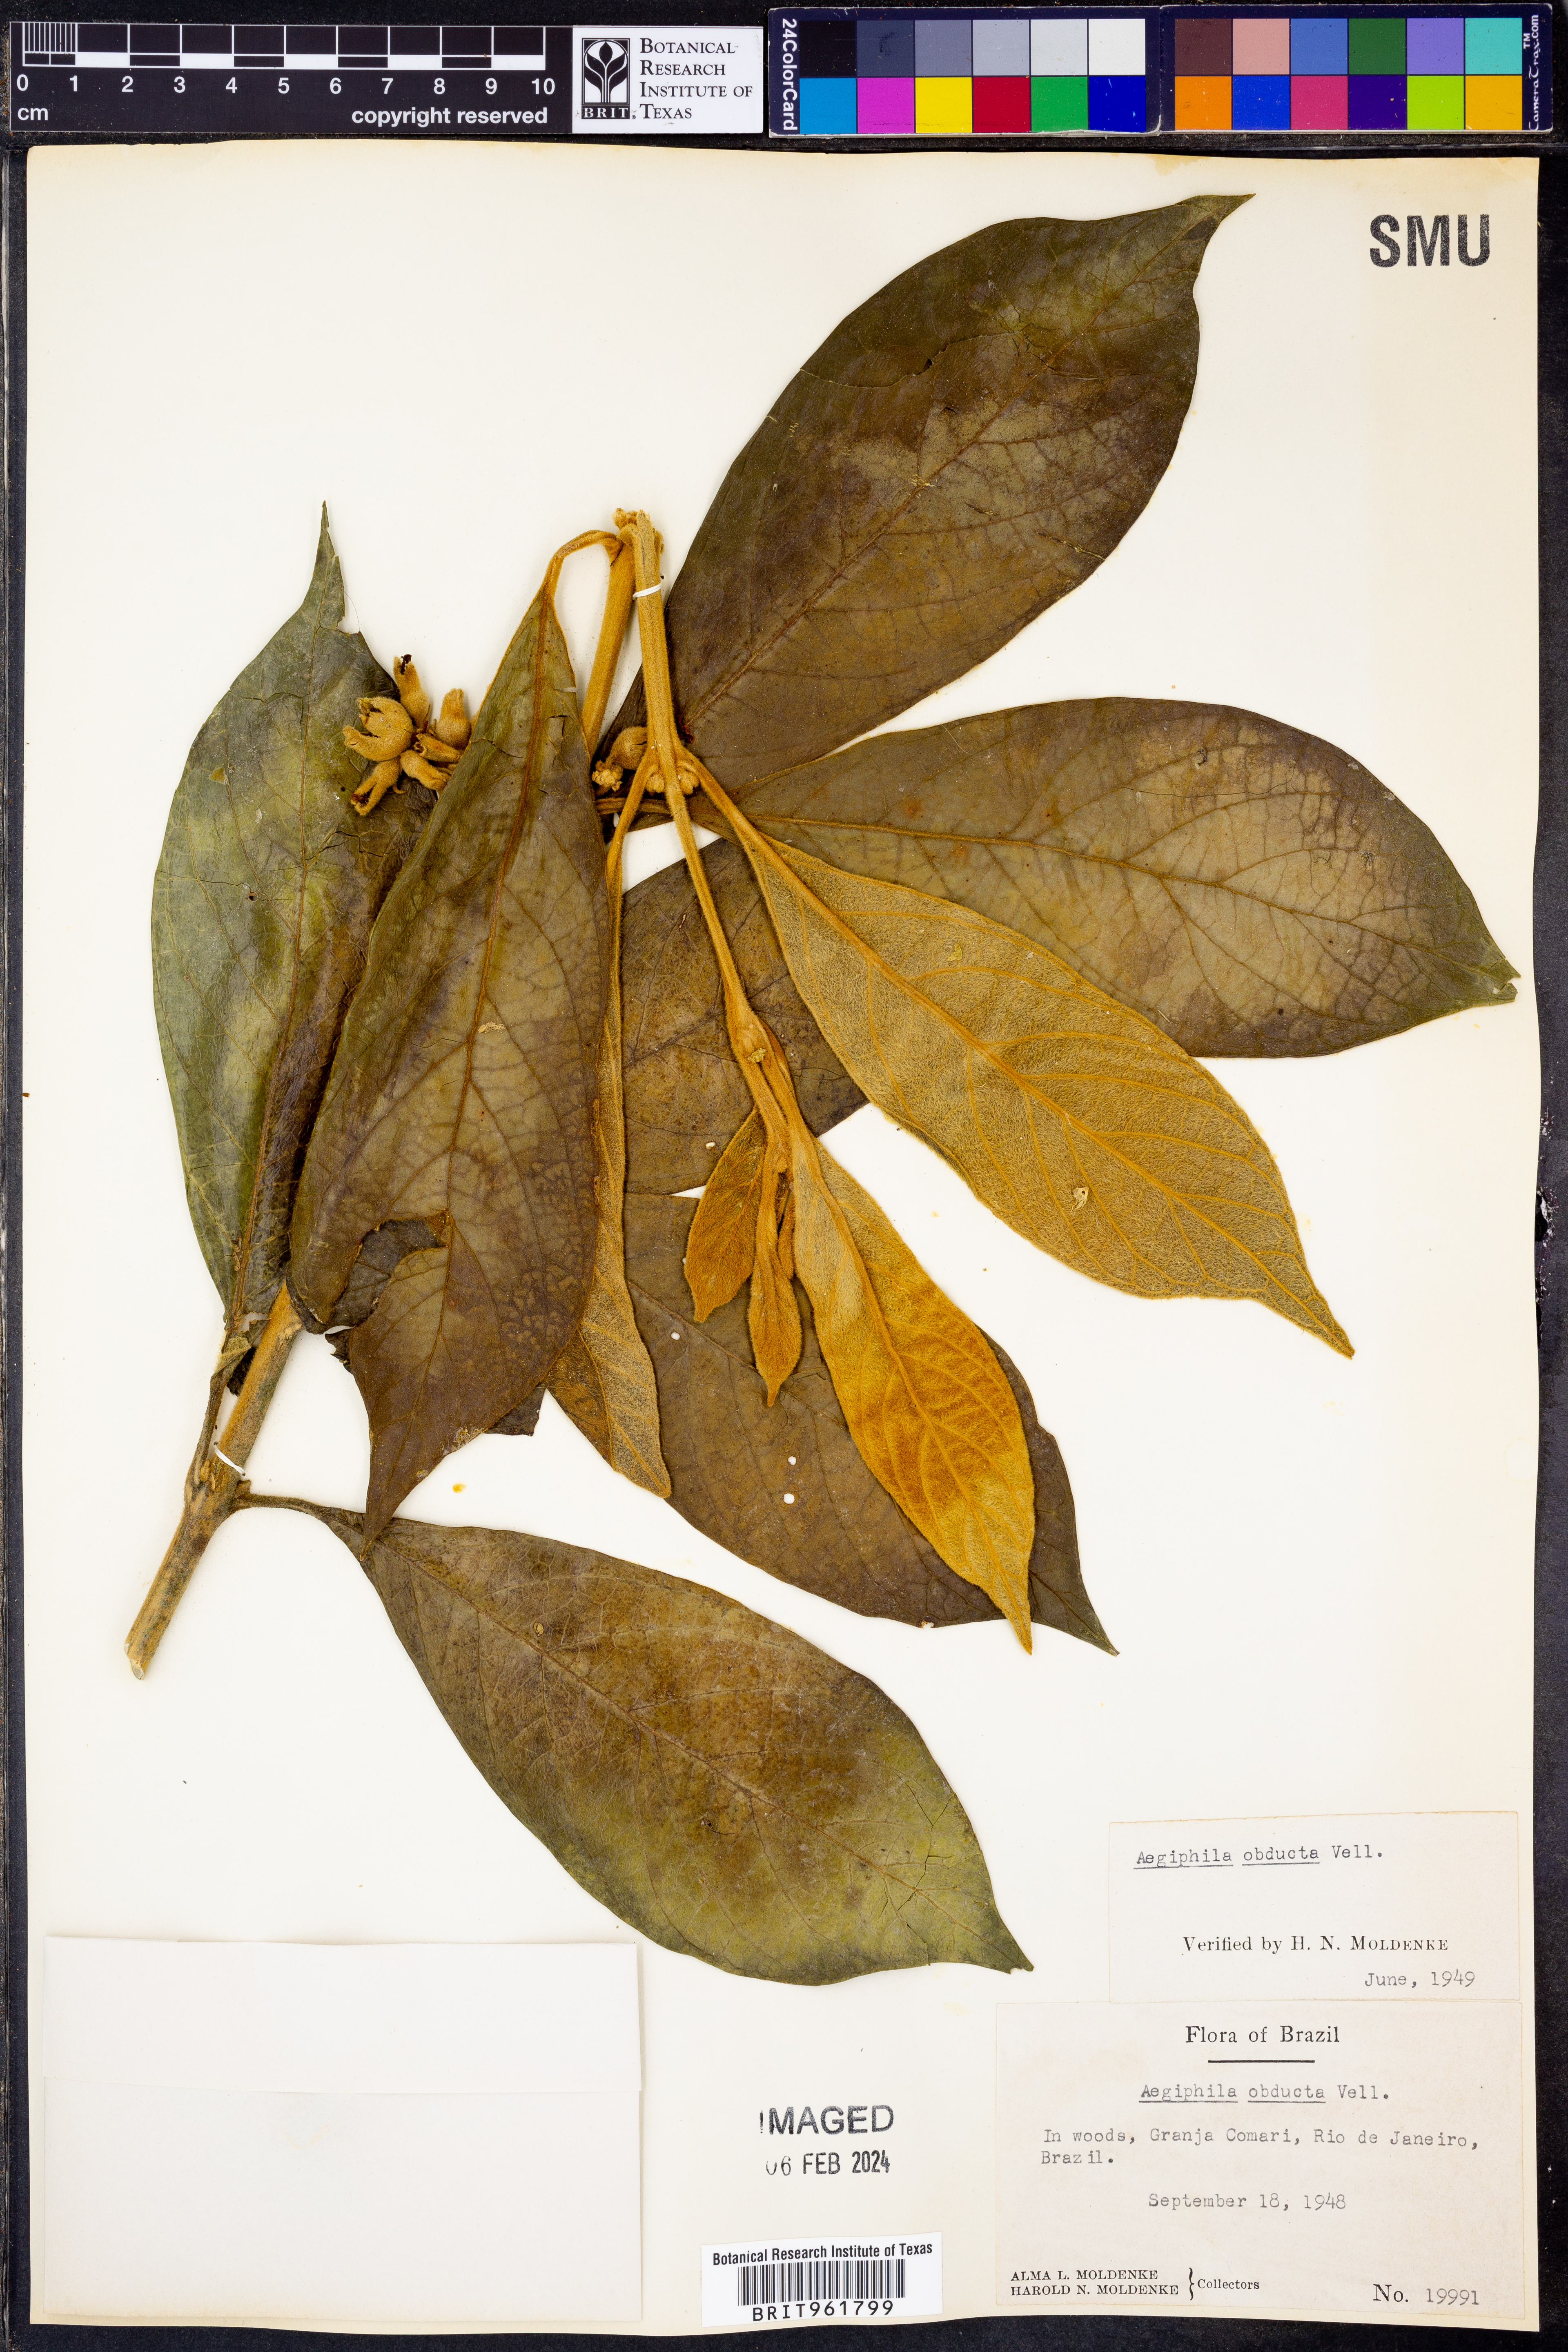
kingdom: Plantae
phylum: Tracheophyta
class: Magnoliopsida
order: Lamiales
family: Lamiaceae
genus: Aegiphila
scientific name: Aegiphila
